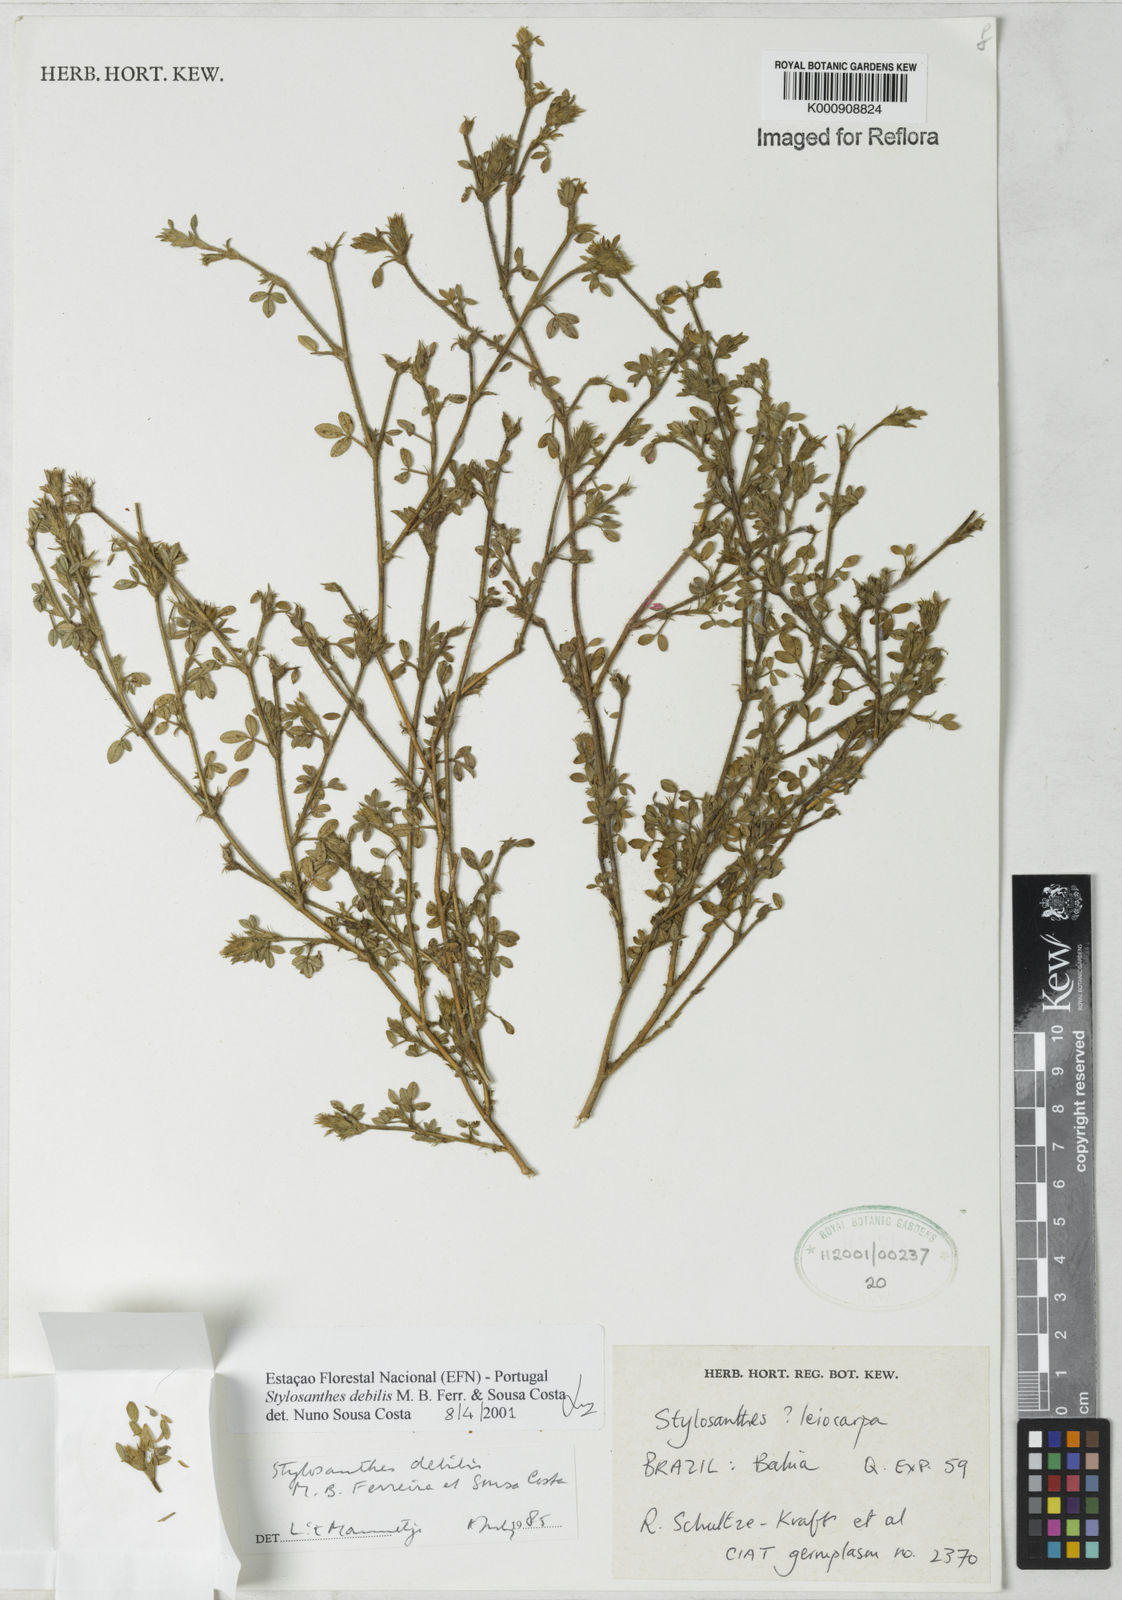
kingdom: Plantae
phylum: Tracheophyta
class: Magnoliopsida
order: Fabales
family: Fabaceae
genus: Stylosanthes
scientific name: Stylosanthes viscosa
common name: Viscid pencil-flower
